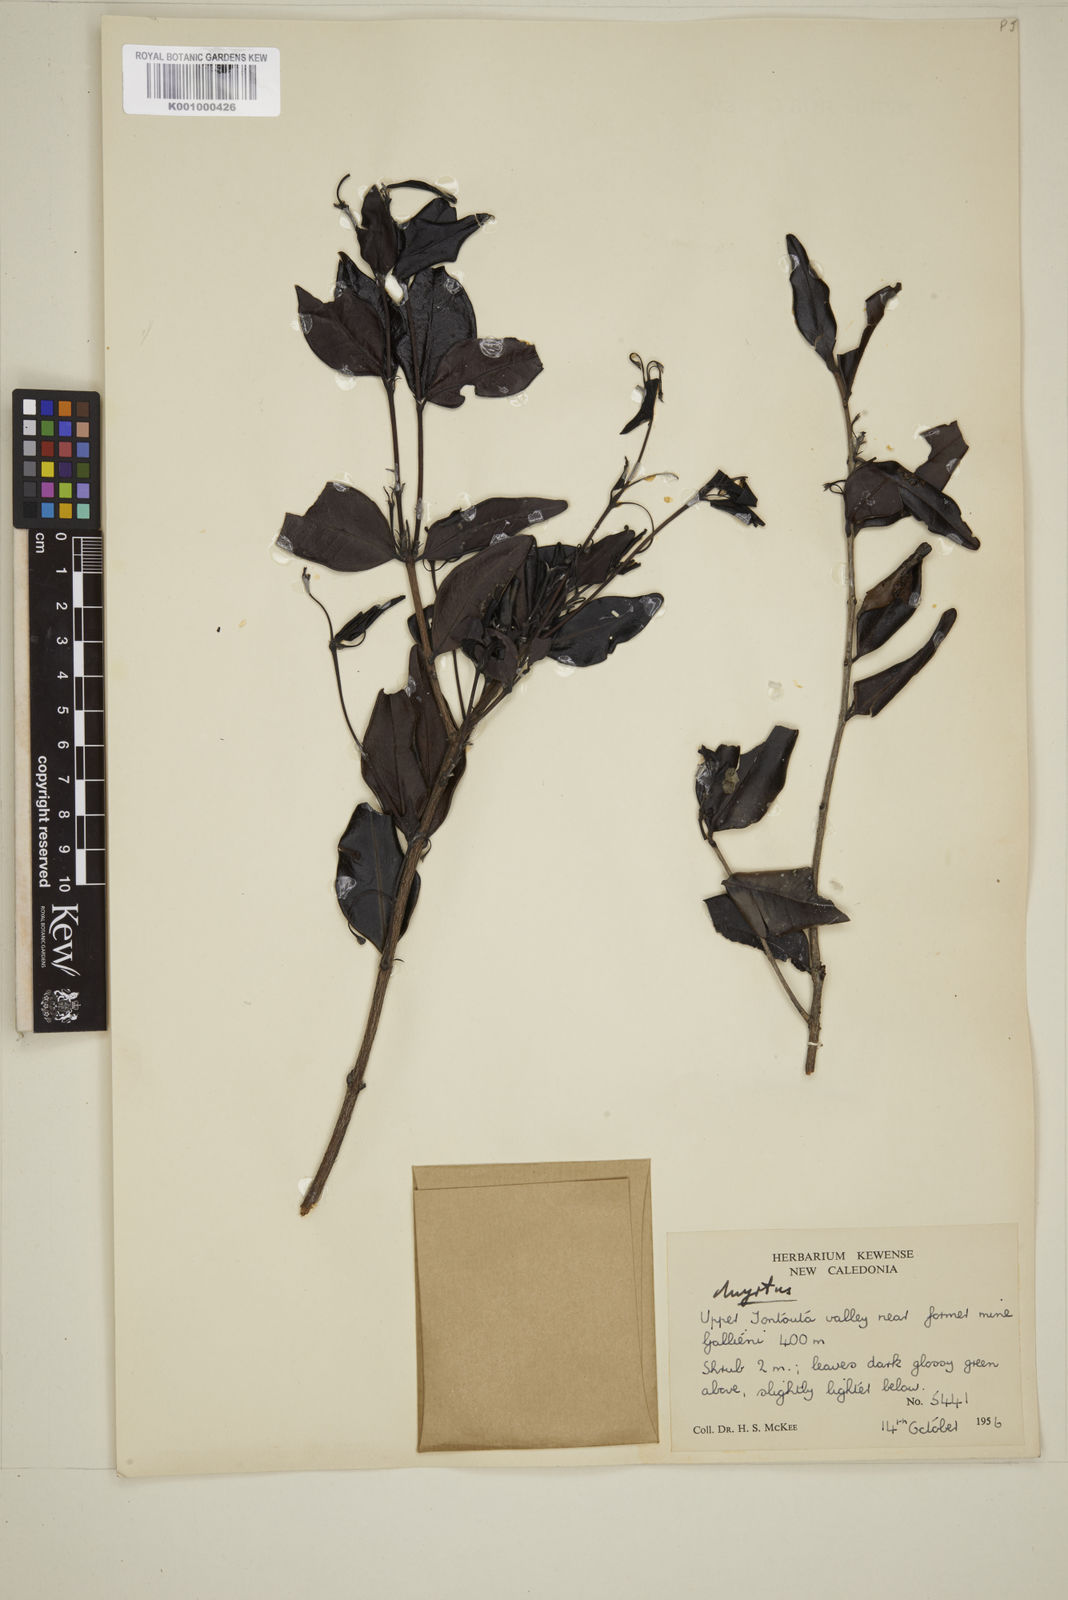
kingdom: Plantae
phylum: Tracheophyta
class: Magnoliopsida
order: Myrtales
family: Myrtaceae
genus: Eugenia
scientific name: Eugenia
